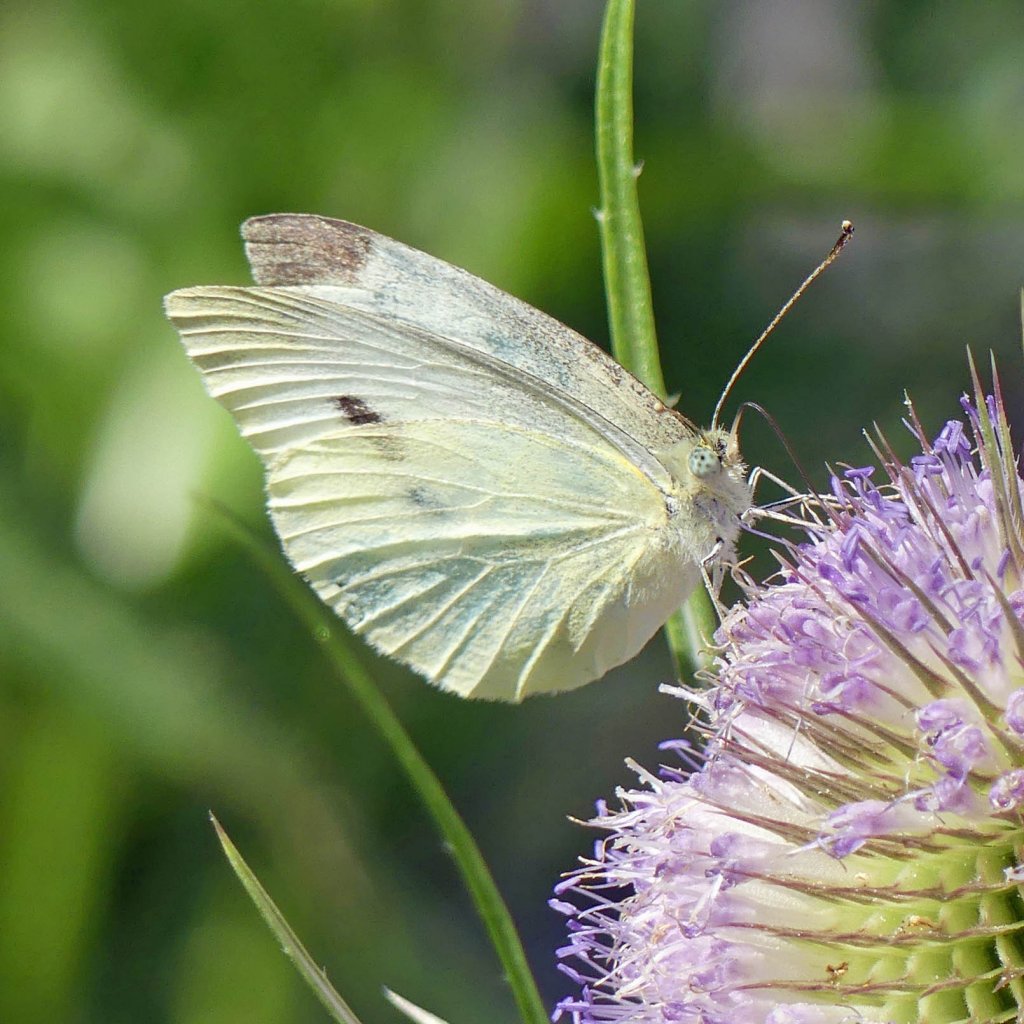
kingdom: Animalia
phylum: Arthropoda
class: Insecta
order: Lepidoptera
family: Pieridae
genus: Pieris
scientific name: Pieris rapae
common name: Cabbage White
